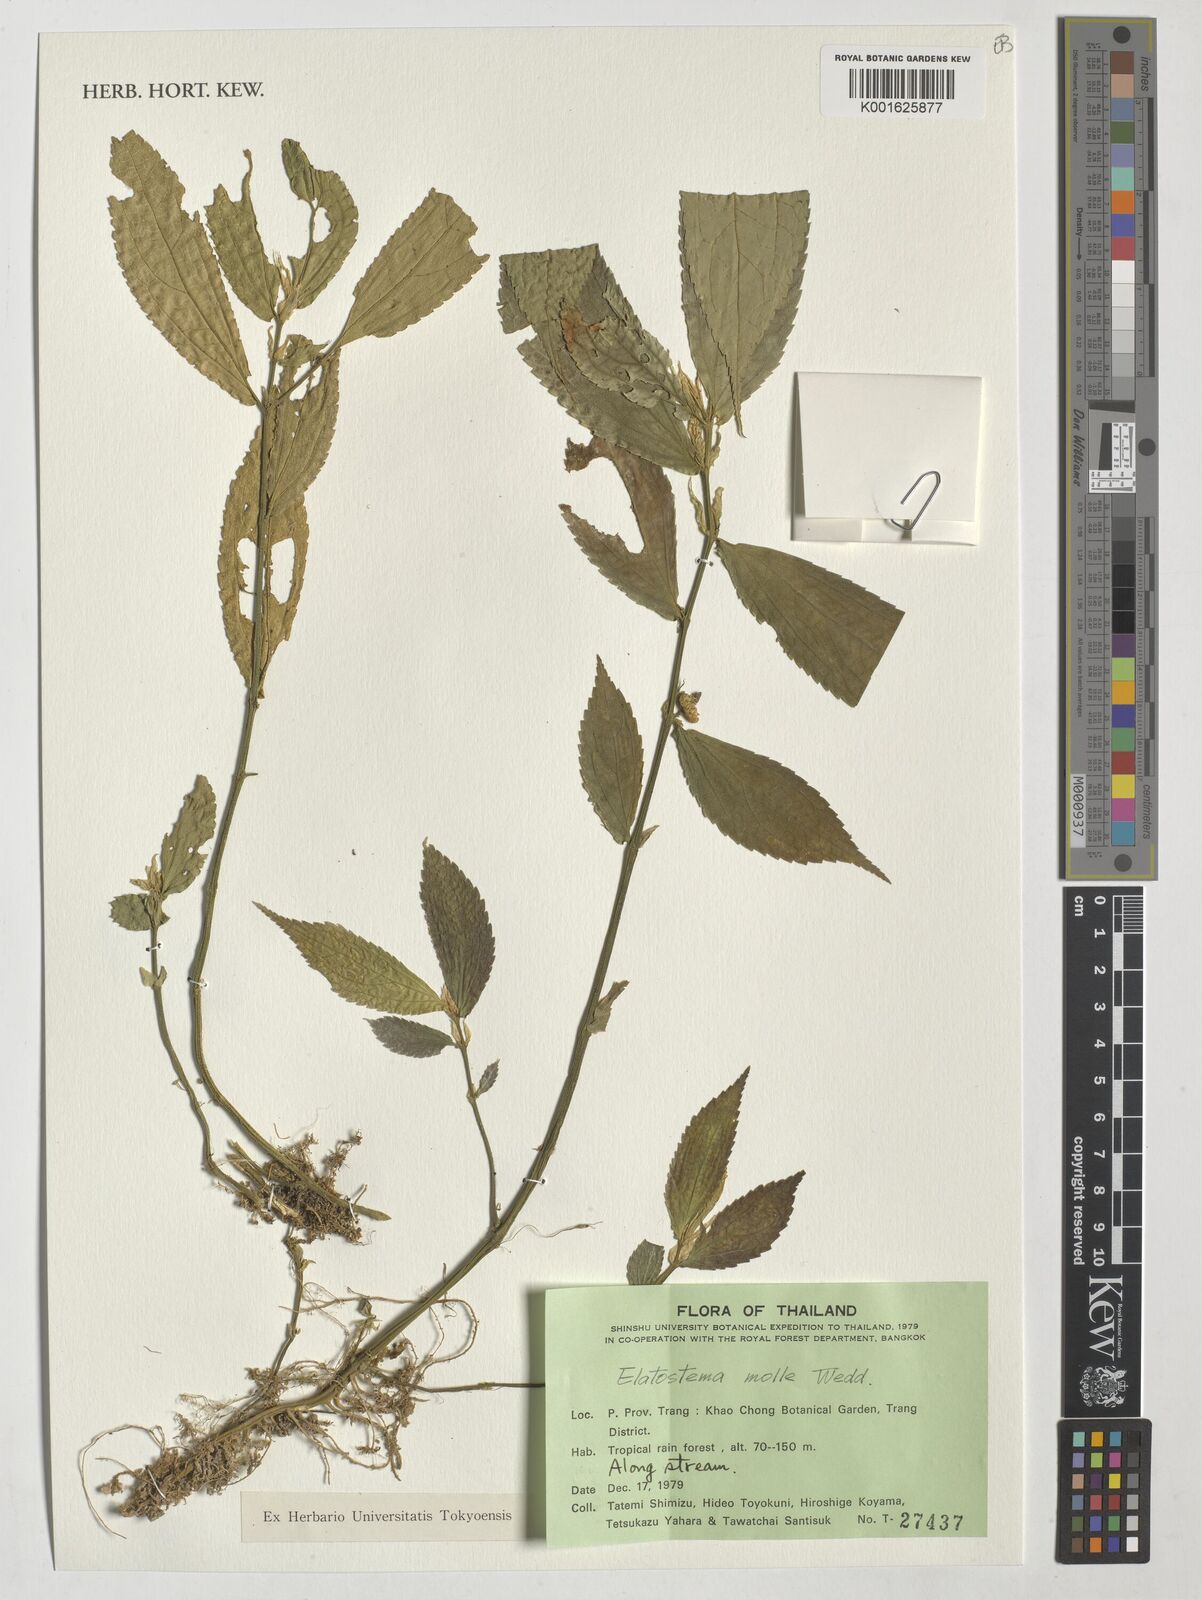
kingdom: Plantae
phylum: Tracheophyta
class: Magnoliopsida
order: Rosales
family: Urticaceae
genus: Elatostema
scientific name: Elatostema molle
